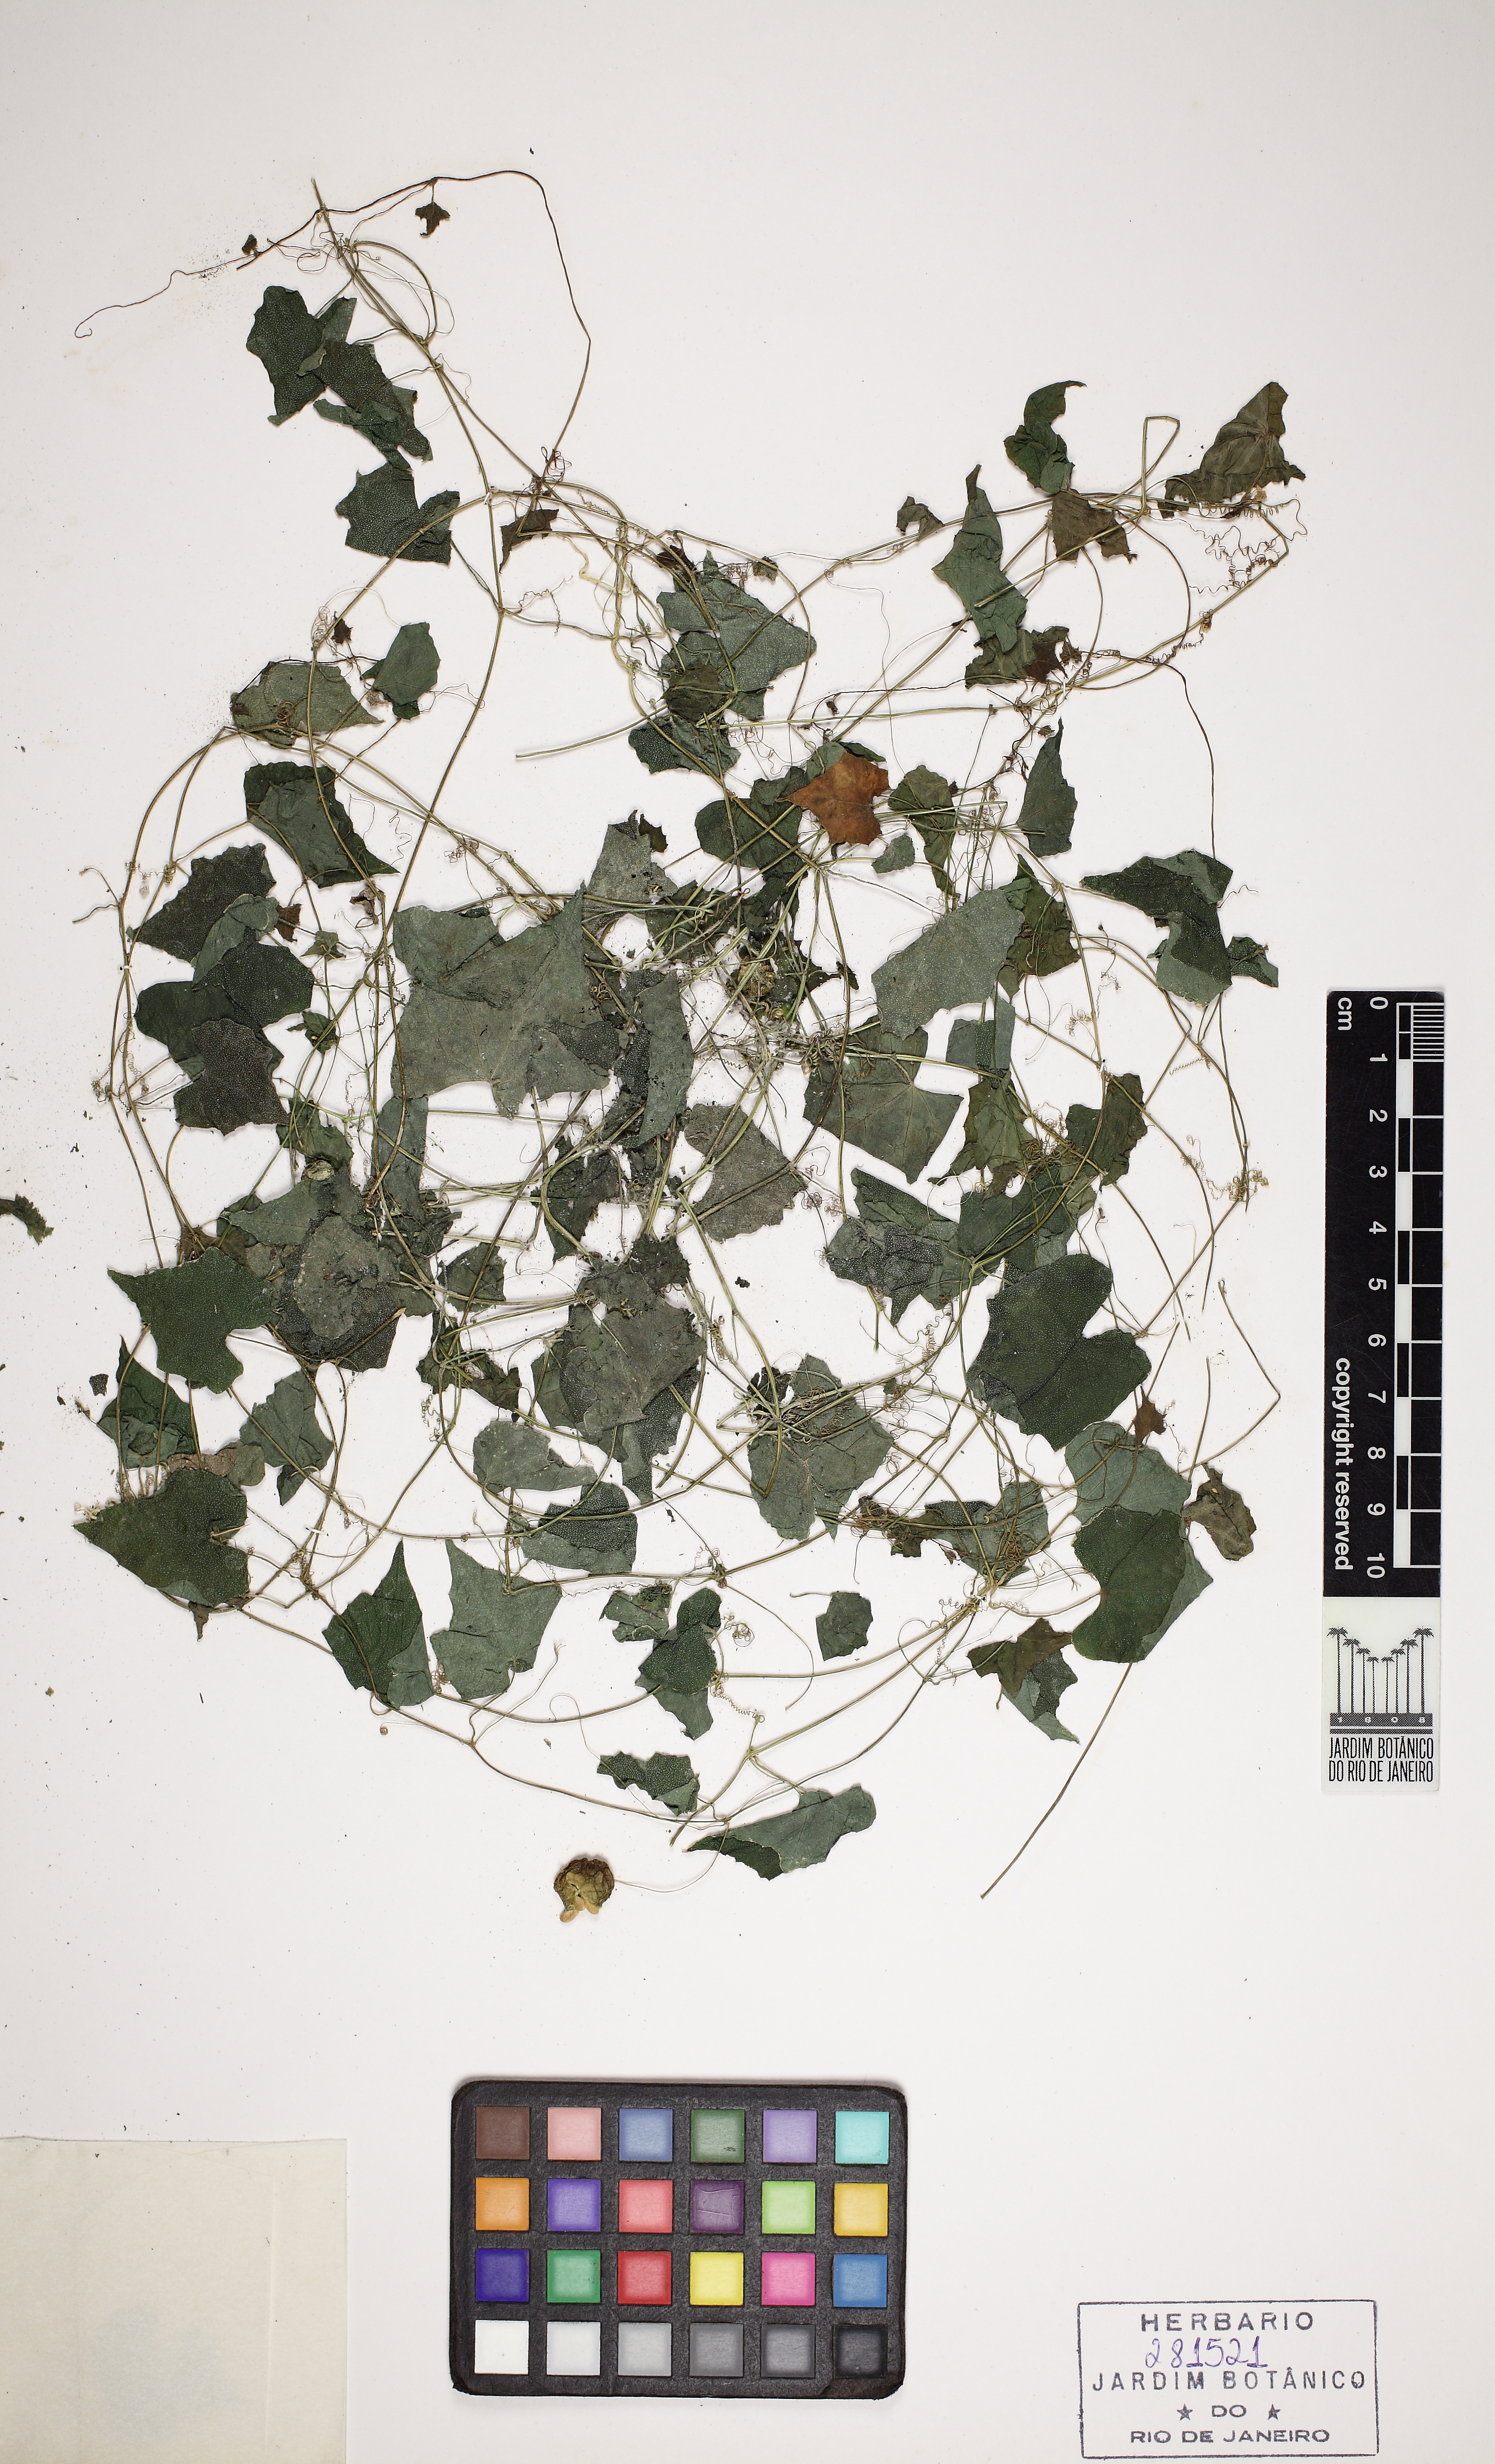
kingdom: Plantae
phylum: Tracheophyta
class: Magnoliopsida
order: Cucurbitales
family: Cucurbitaceae
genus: Melothria
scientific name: Melothria pendula
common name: Creeping-cucumber
